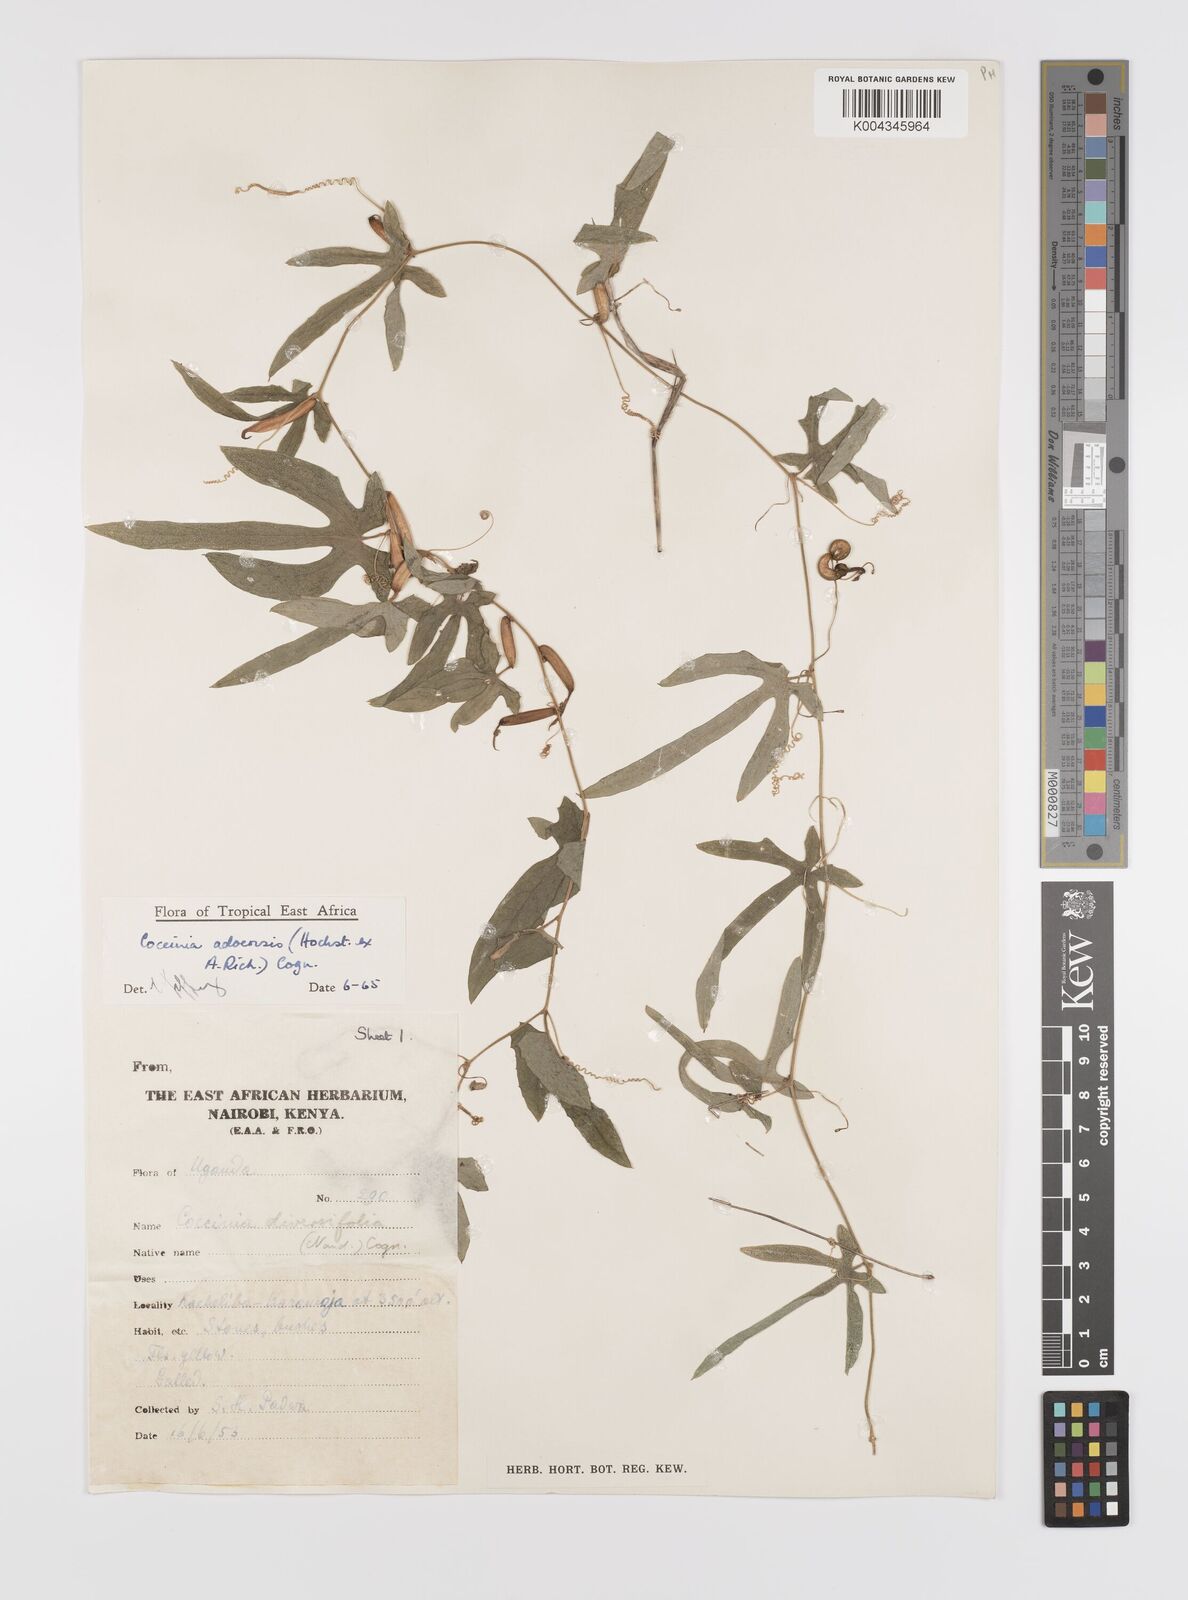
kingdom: Plantae
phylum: Tracheophyta
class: Magnoliopsida
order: Cucurbitales
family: Cucurbitaceae
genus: Coccinia
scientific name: Coccinia adoensis
